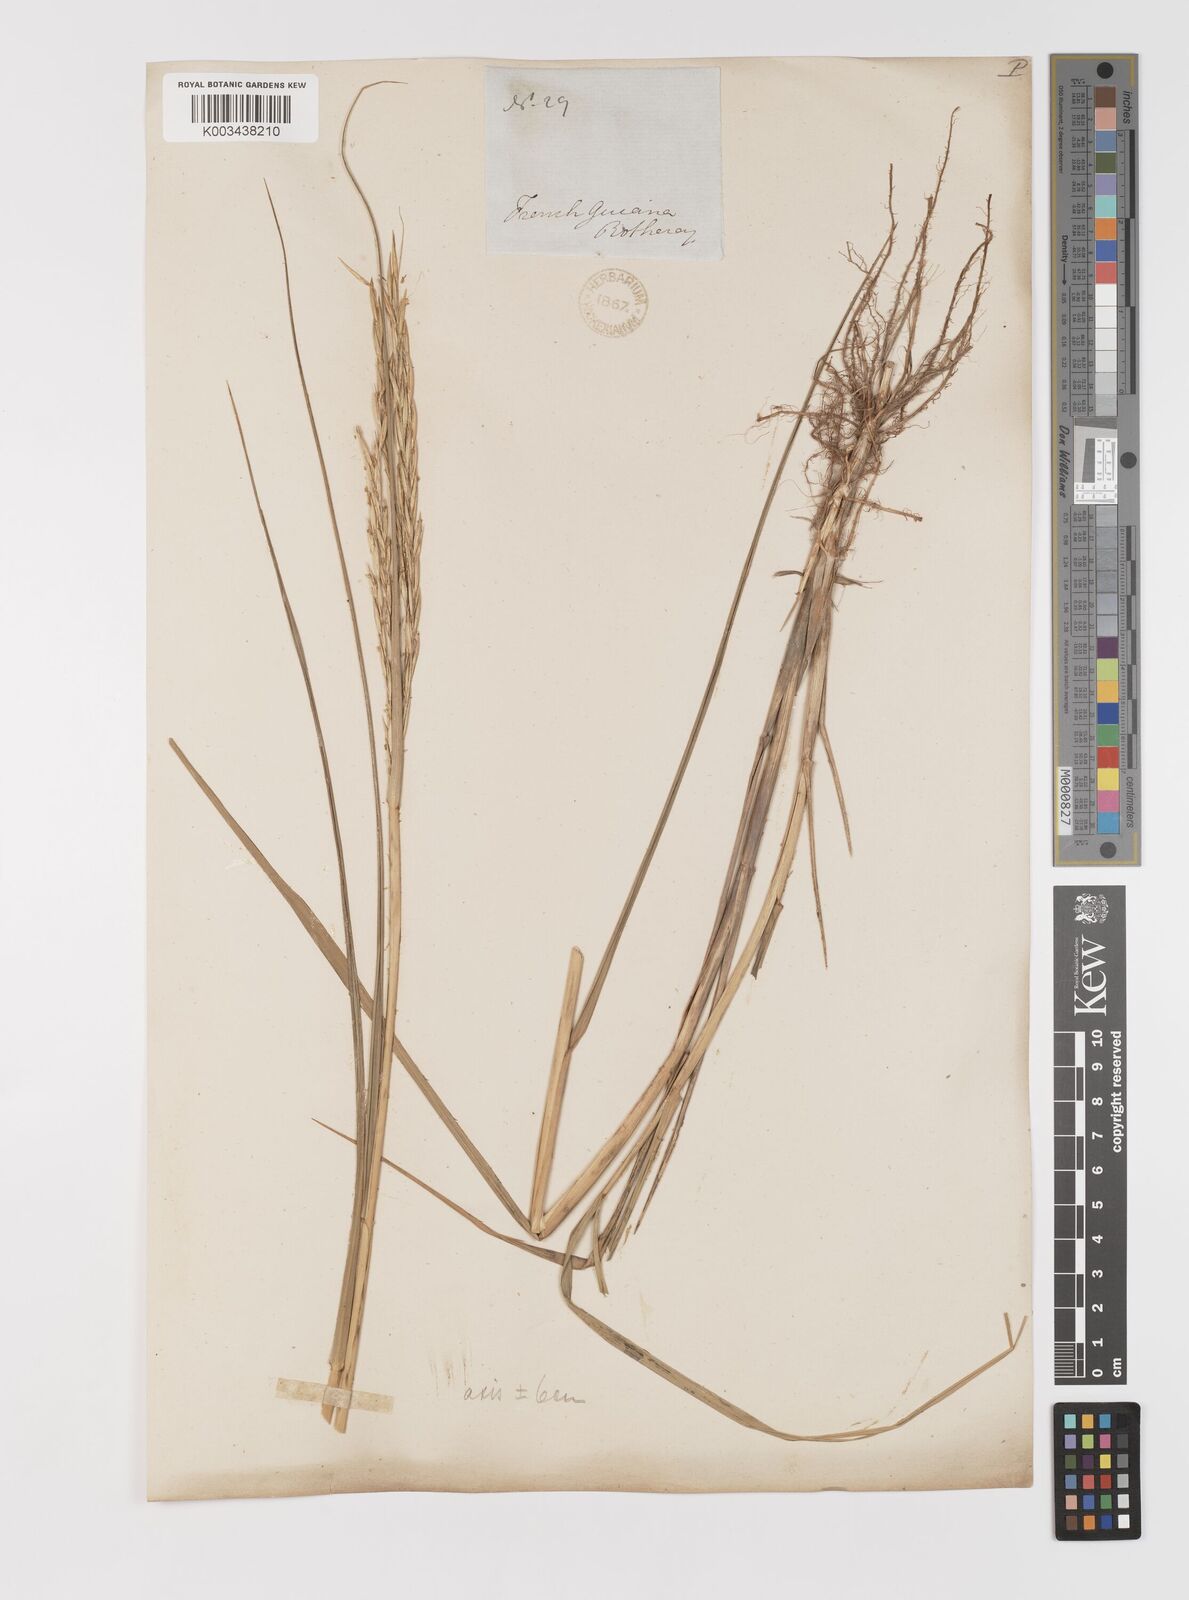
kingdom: Plantae
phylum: Tracheophyta
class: Liliopsida
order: Poales
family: Poaceae
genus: Sporobolus
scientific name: Sporobolus alterniflorus
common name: Atlantic cordgrass
